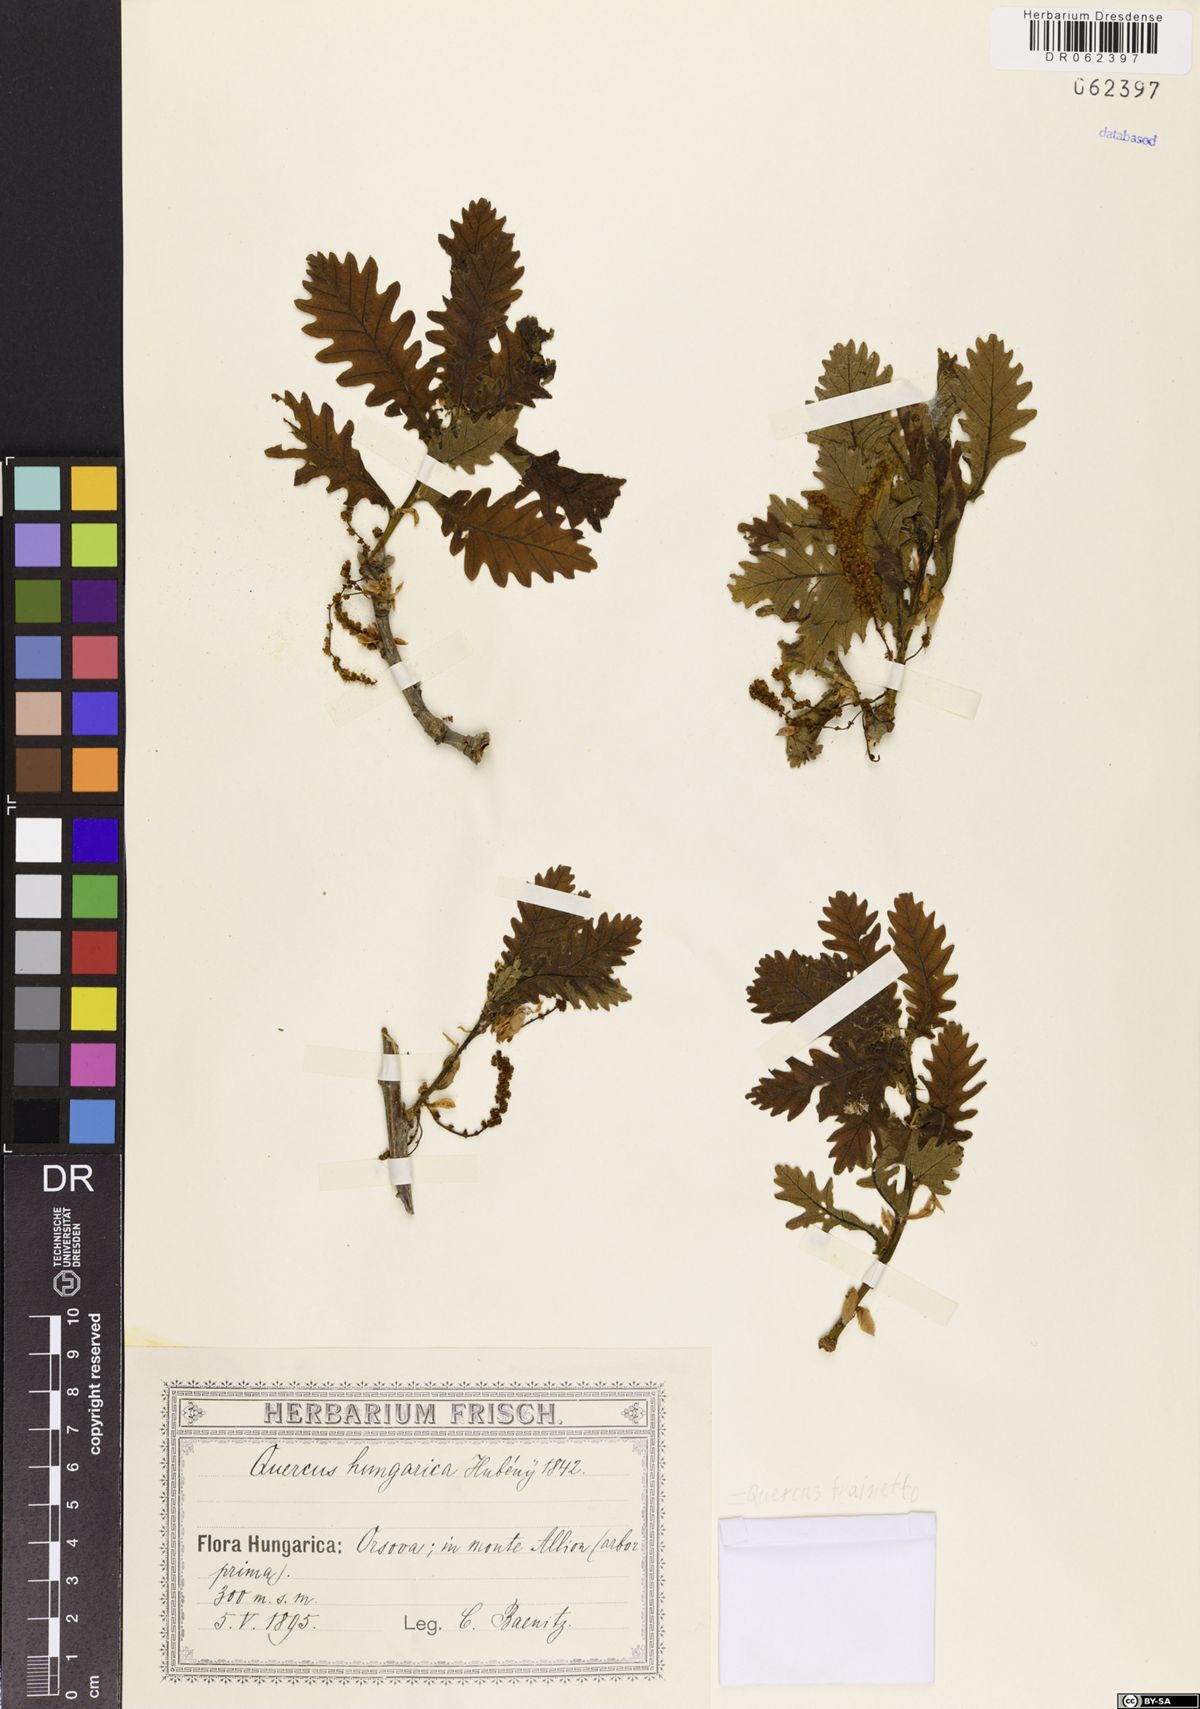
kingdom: Plantae
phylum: Tracheophyta
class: Magnoliopsida
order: Fagales
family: Fagaceae
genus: Quercus
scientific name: Quercus conferta
